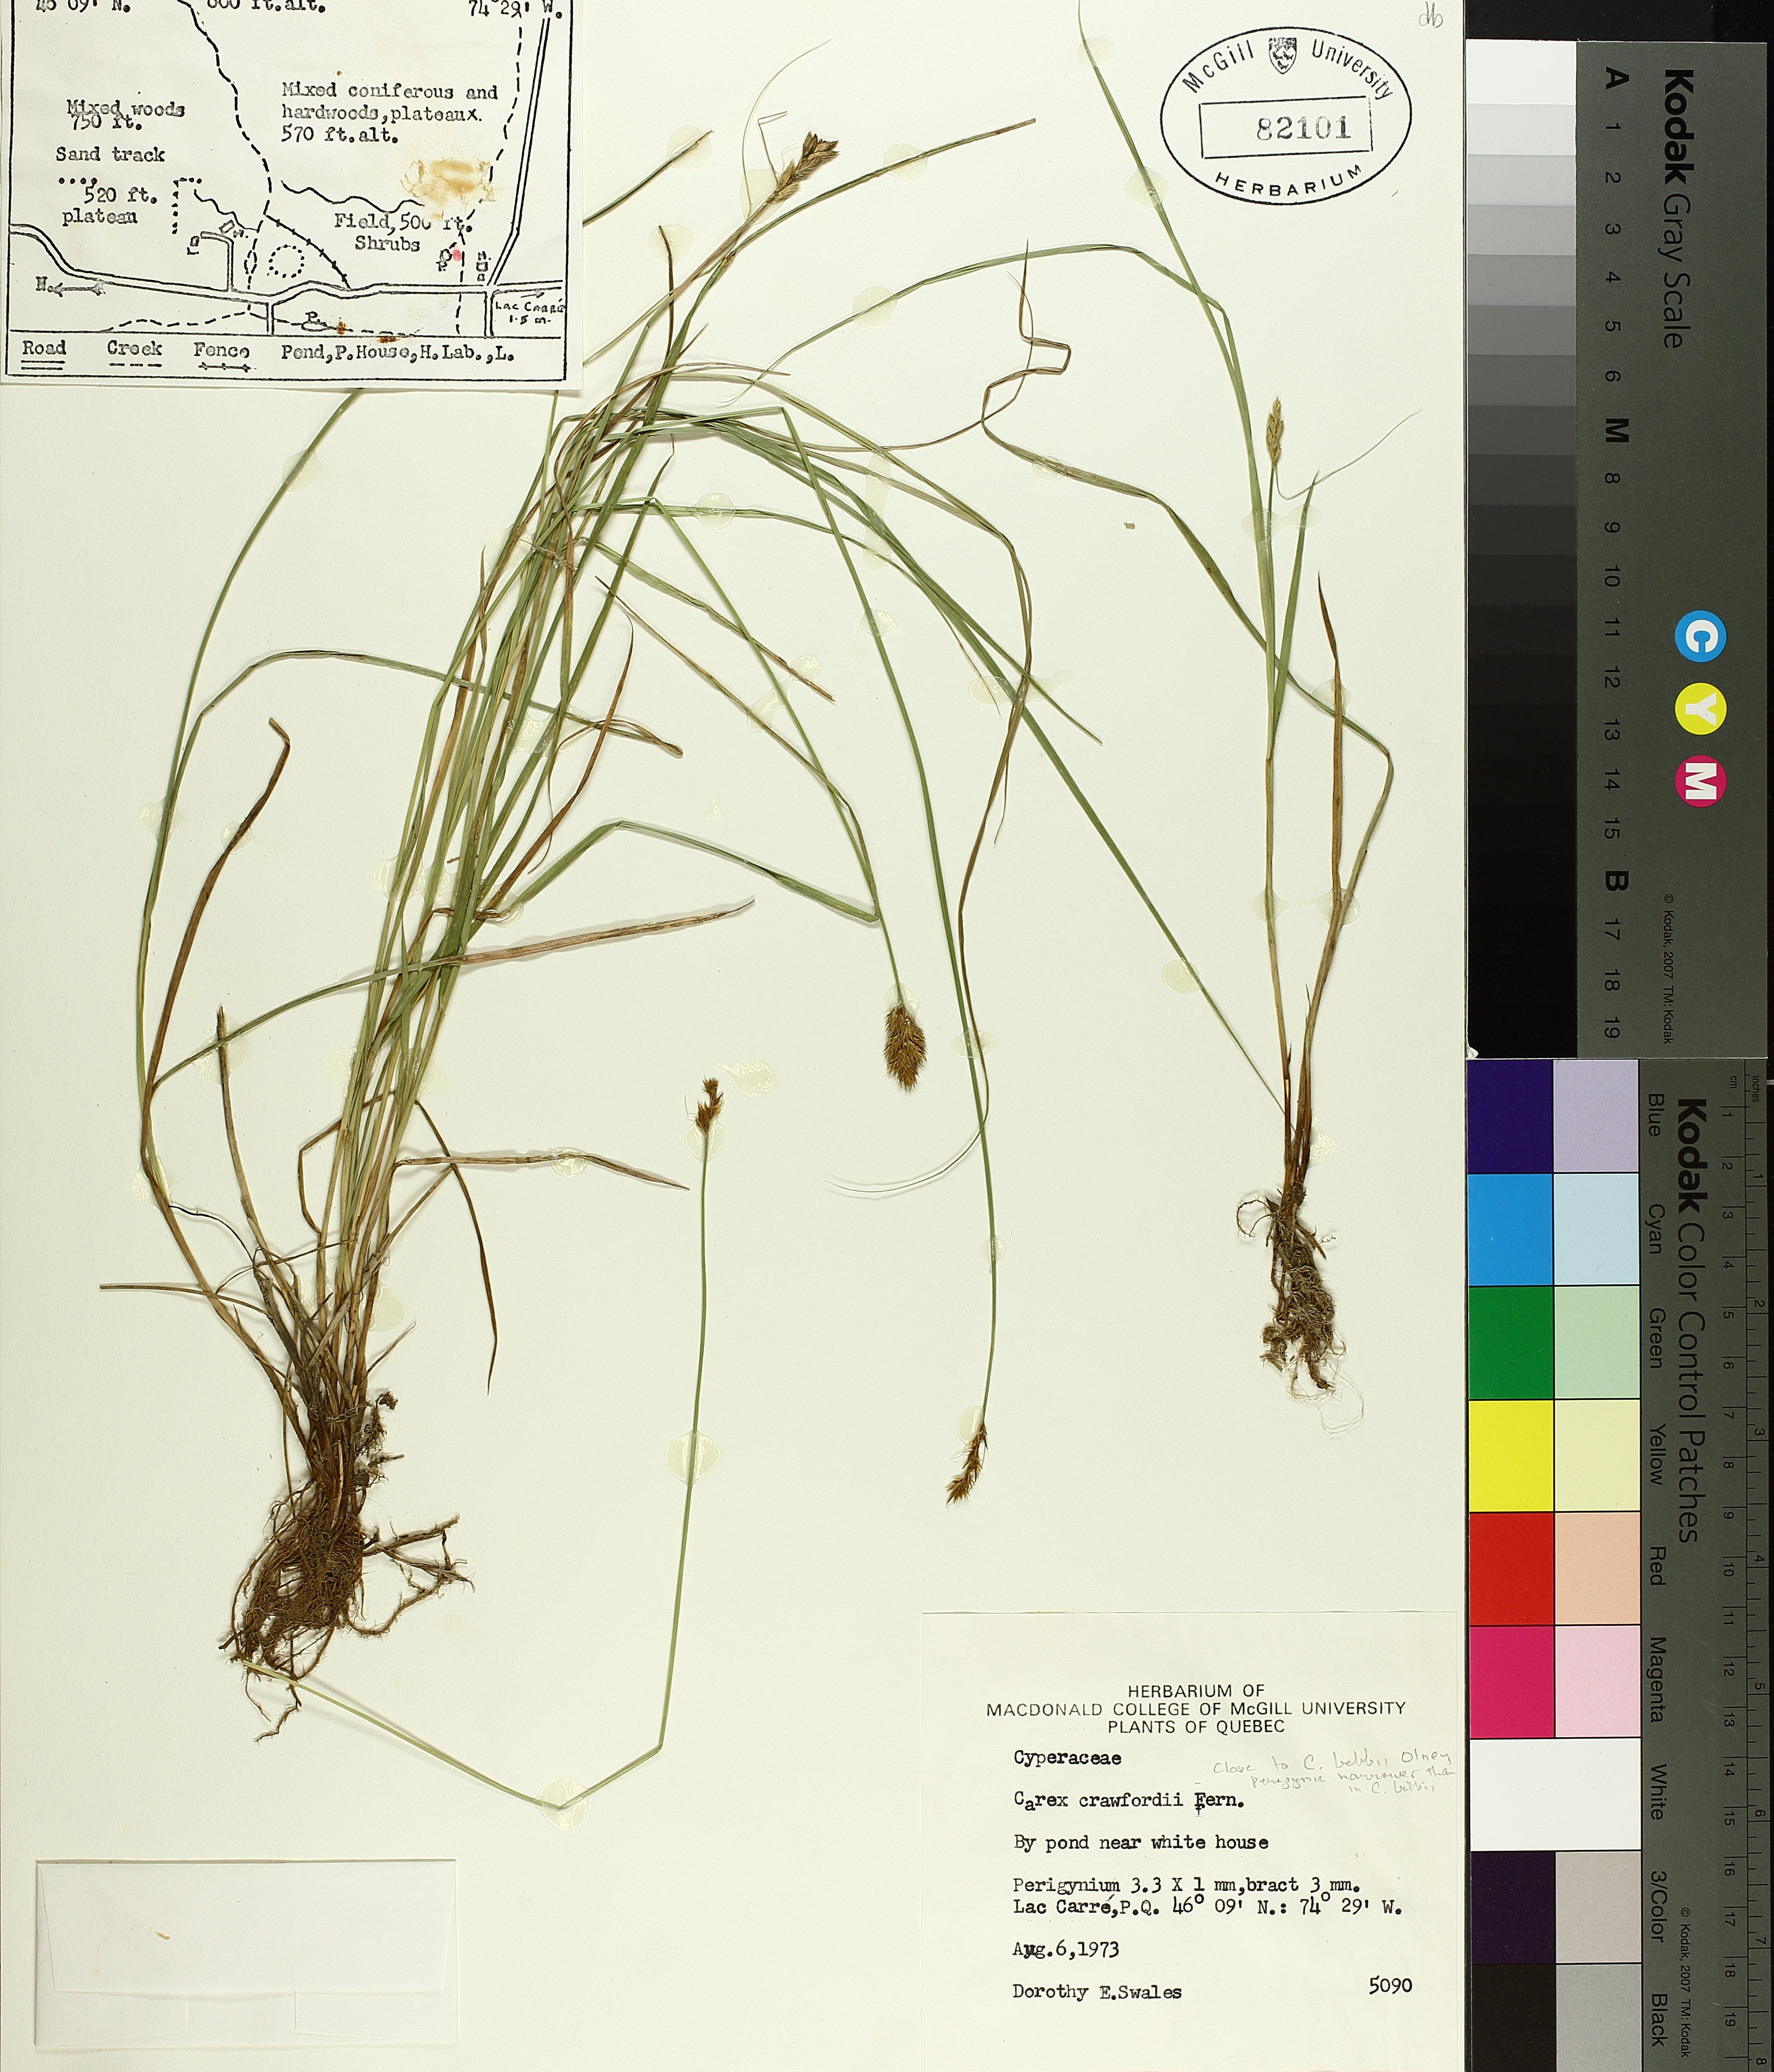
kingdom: Plantae
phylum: Tracheophyta
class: Liliopsida
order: Poales
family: Cyperaceae
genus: Carex
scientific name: Carex crawfordii
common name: Crawford's sedge
